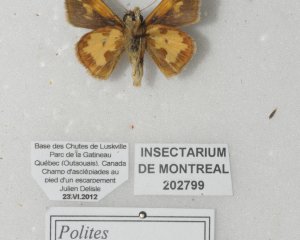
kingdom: Animalia
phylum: Arthropoda
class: Insecta
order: Lepidoptera
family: Hesperiidae
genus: Polites
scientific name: Polites coras
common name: Peck's Skipper
